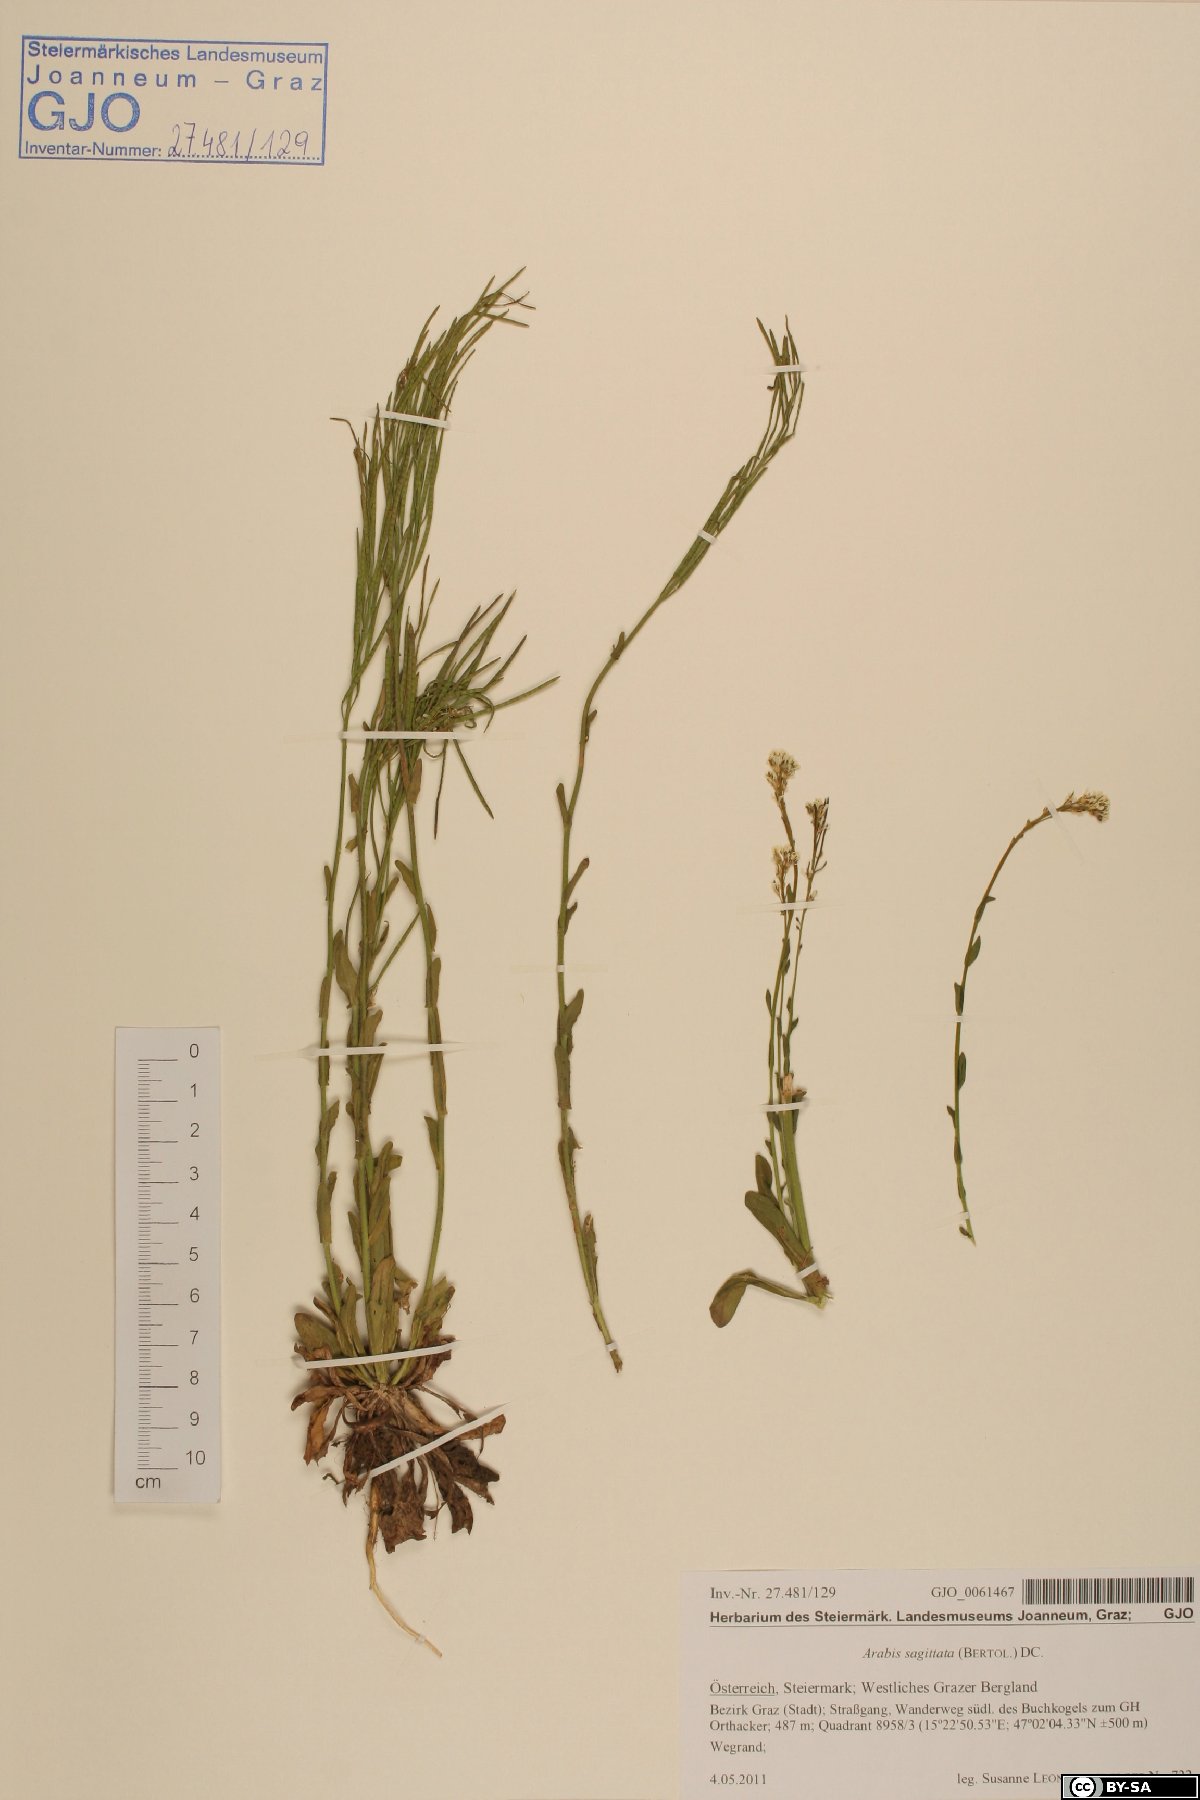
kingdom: Plantae
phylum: Tracheophyta
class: Magnoliopsida
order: Brassicales
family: Brassicaceae
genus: Arabis
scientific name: Arabis hirsuta
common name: Hairy rock-cress
